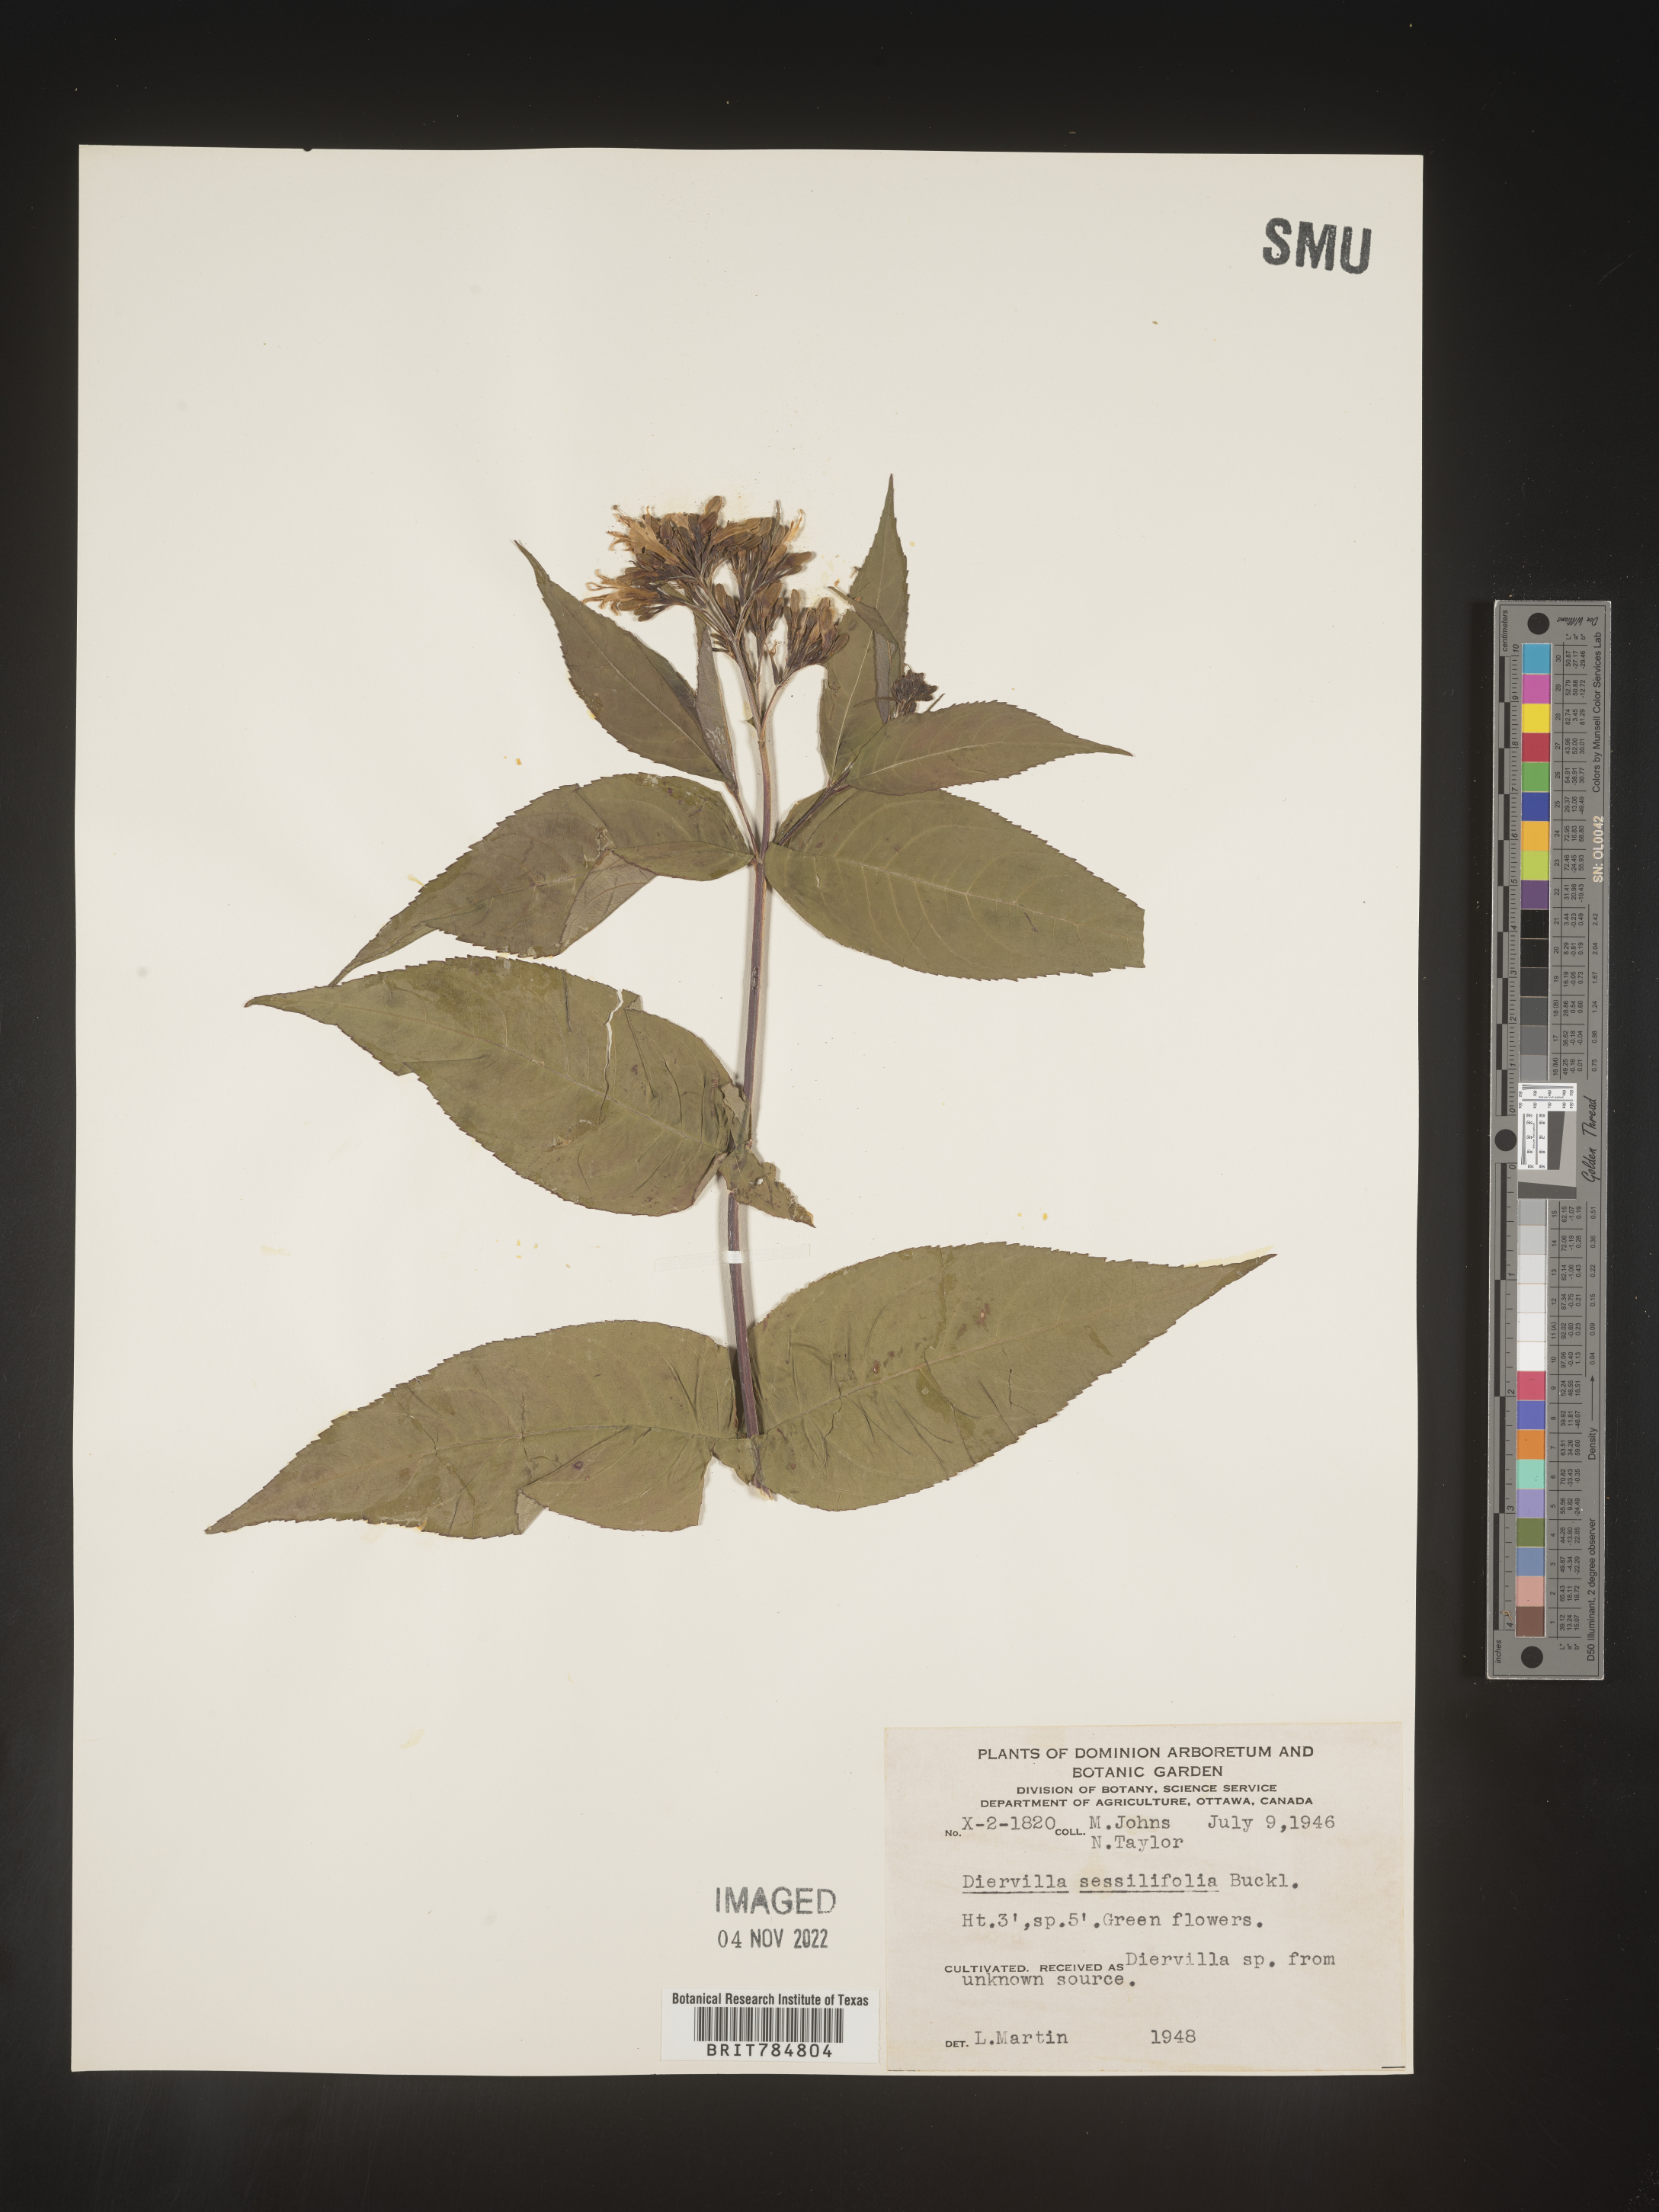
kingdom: Plantae
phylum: Tracheophyta
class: Magnoliopsida
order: Dipsacales
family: Caprifoliaceae
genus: Diervilla
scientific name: Diervilla
